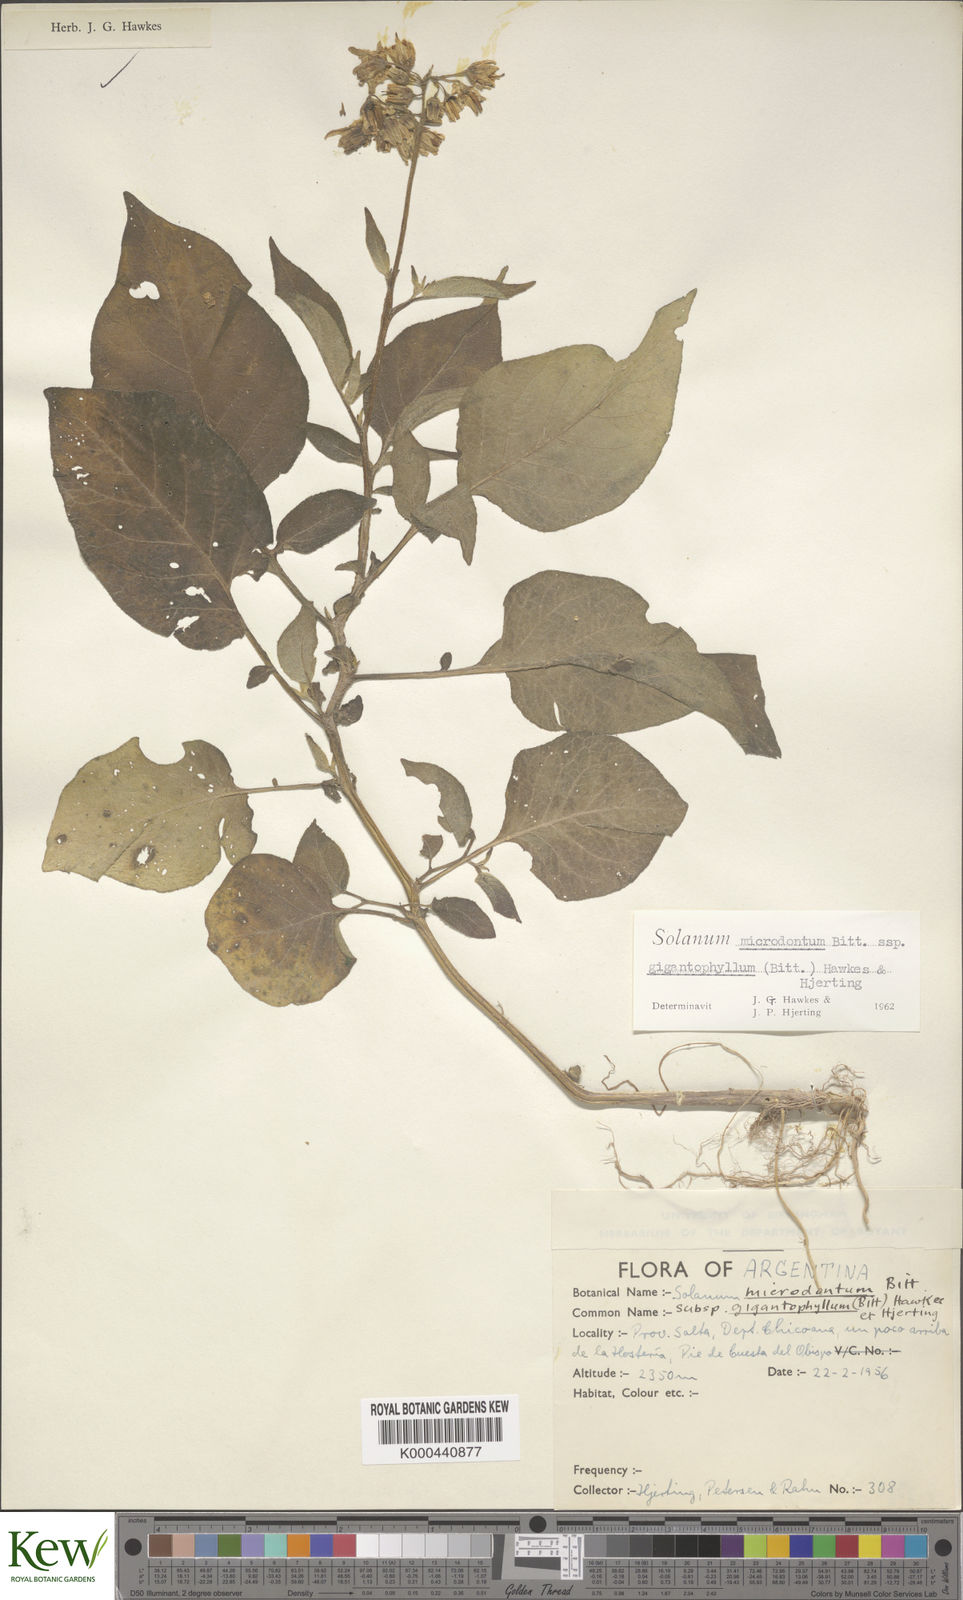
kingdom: Plantae
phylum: Tracheophyta
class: Magnoliopsida
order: Solanales
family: Solanaceae
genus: Solanum
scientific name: Solanum microdontum
